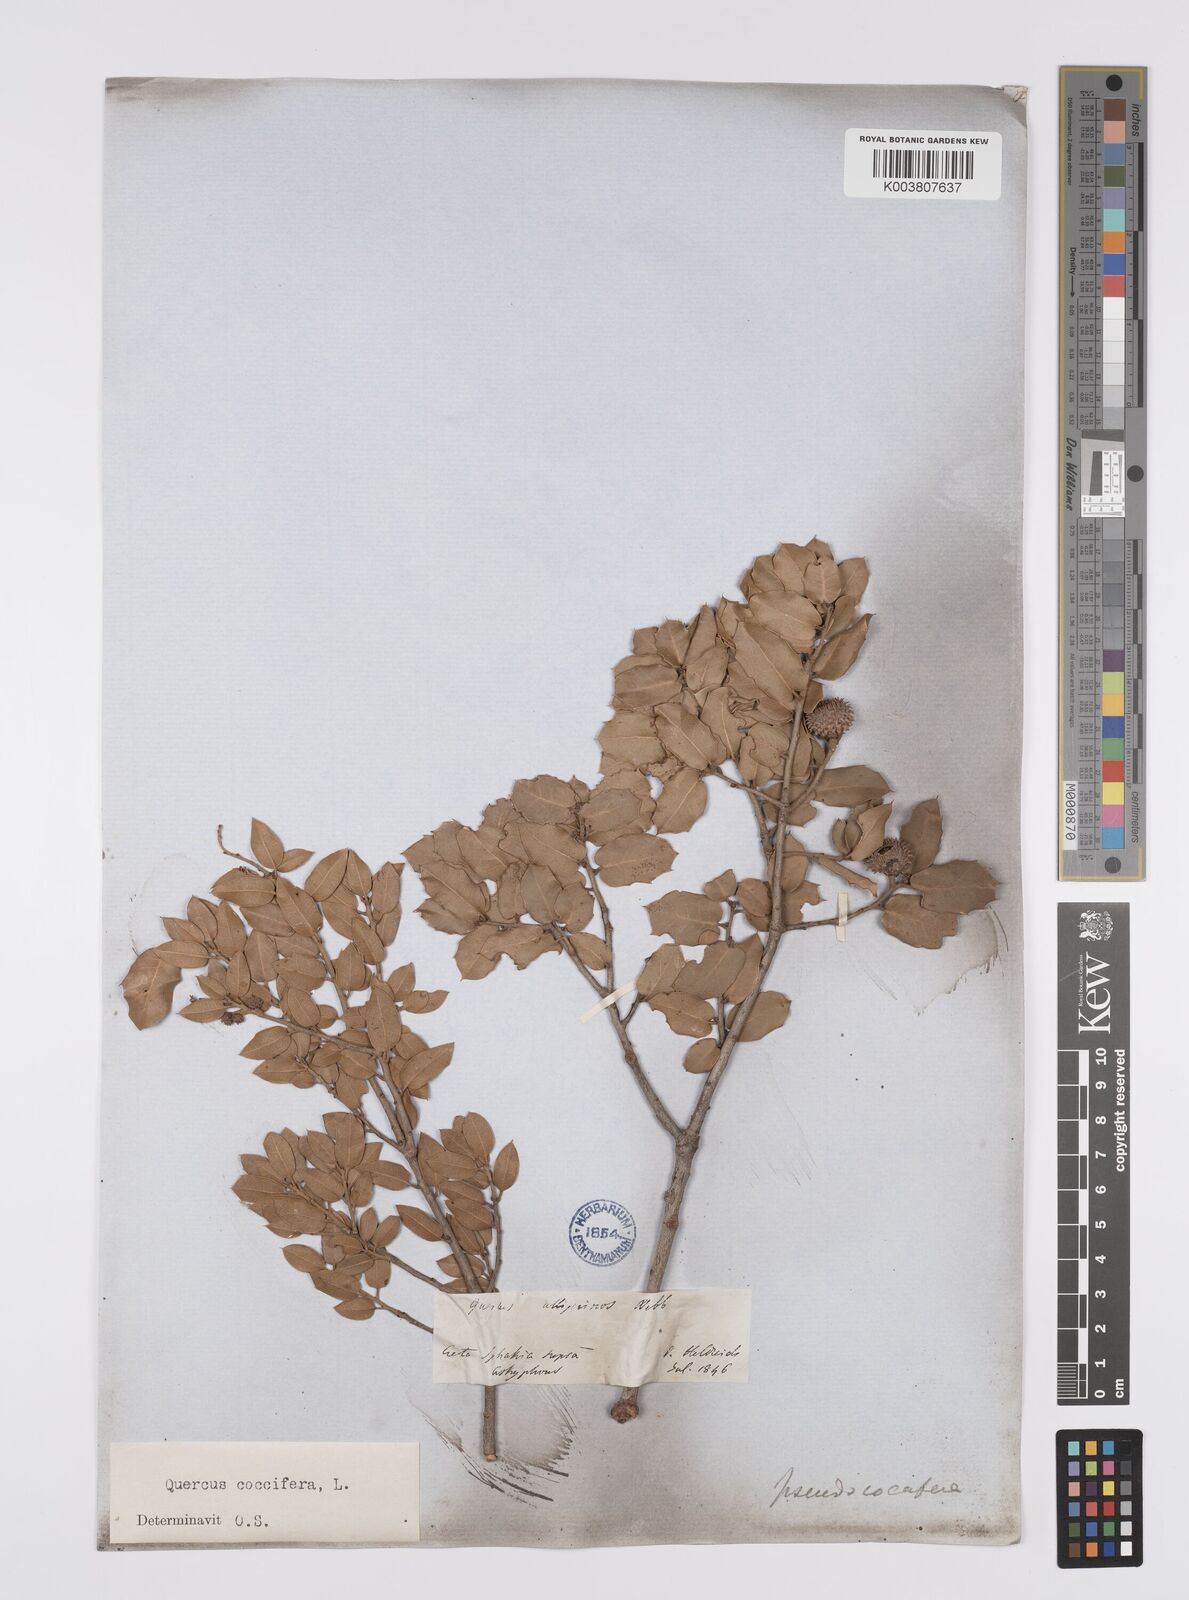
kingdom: Plantae
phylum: Tracheophyta
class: Magnoliopsida
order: Fagales
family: Fagaceae
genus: Quercus
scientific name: Quercus coccifera
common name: Kermes oak
